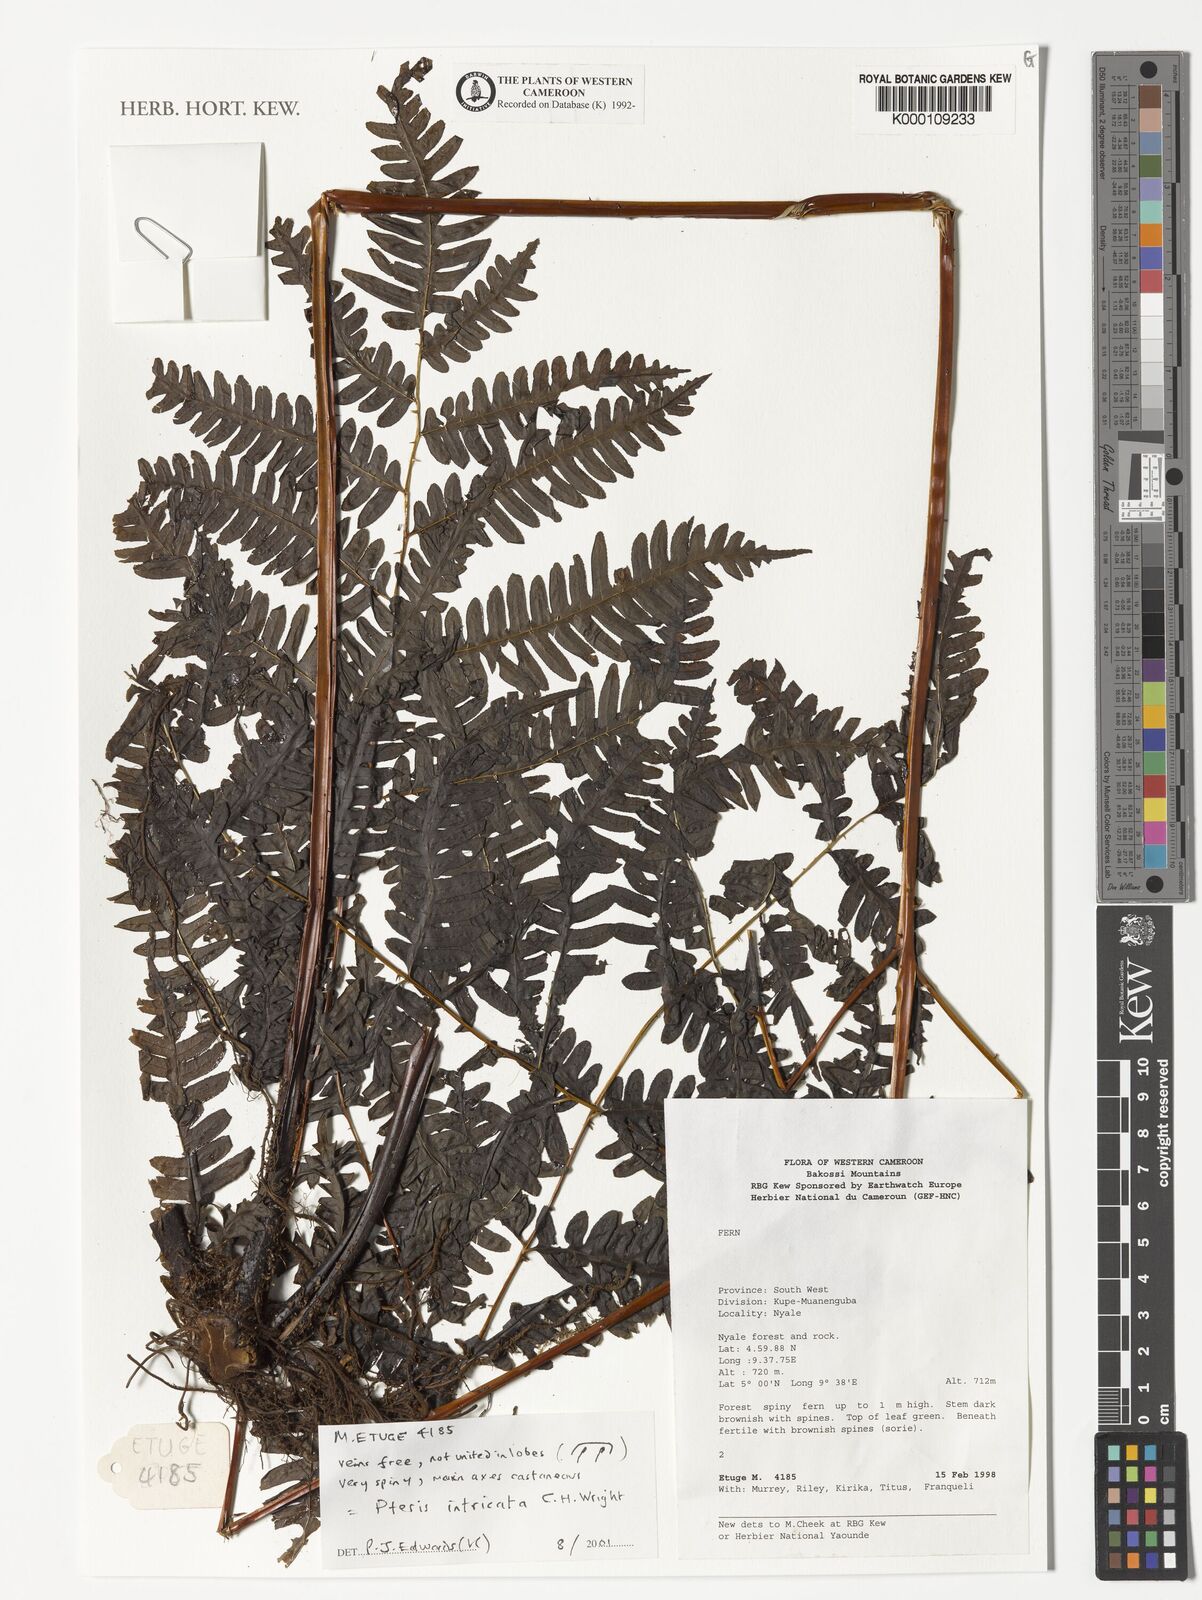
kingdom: Plantae
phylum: Tracheophyta
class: Polypodiopsida
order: Polypodiales
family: Pteridaceae
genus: Pteris
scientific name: Pteris intricata
